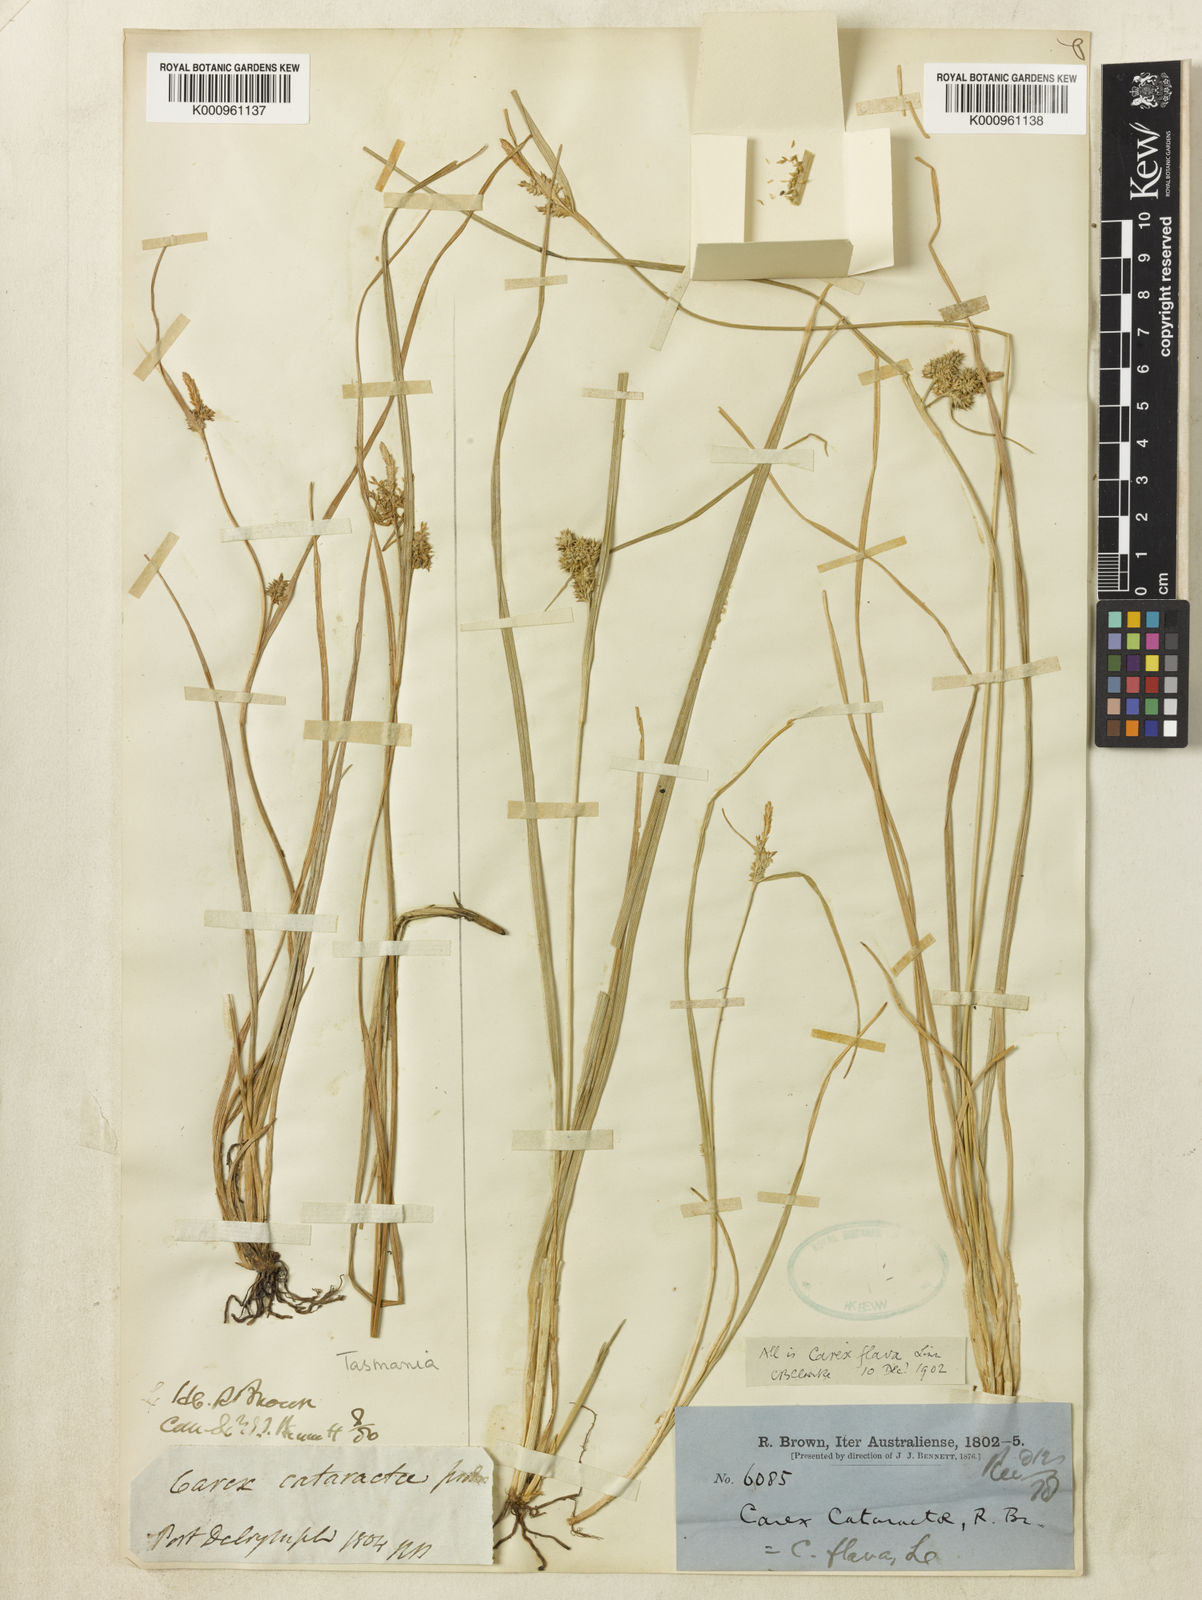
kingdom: Plantae
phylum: Tracheophyta
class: Liliopsida
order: Poales
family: Cyperaceae
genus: Carex
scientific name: Carex cataractae
